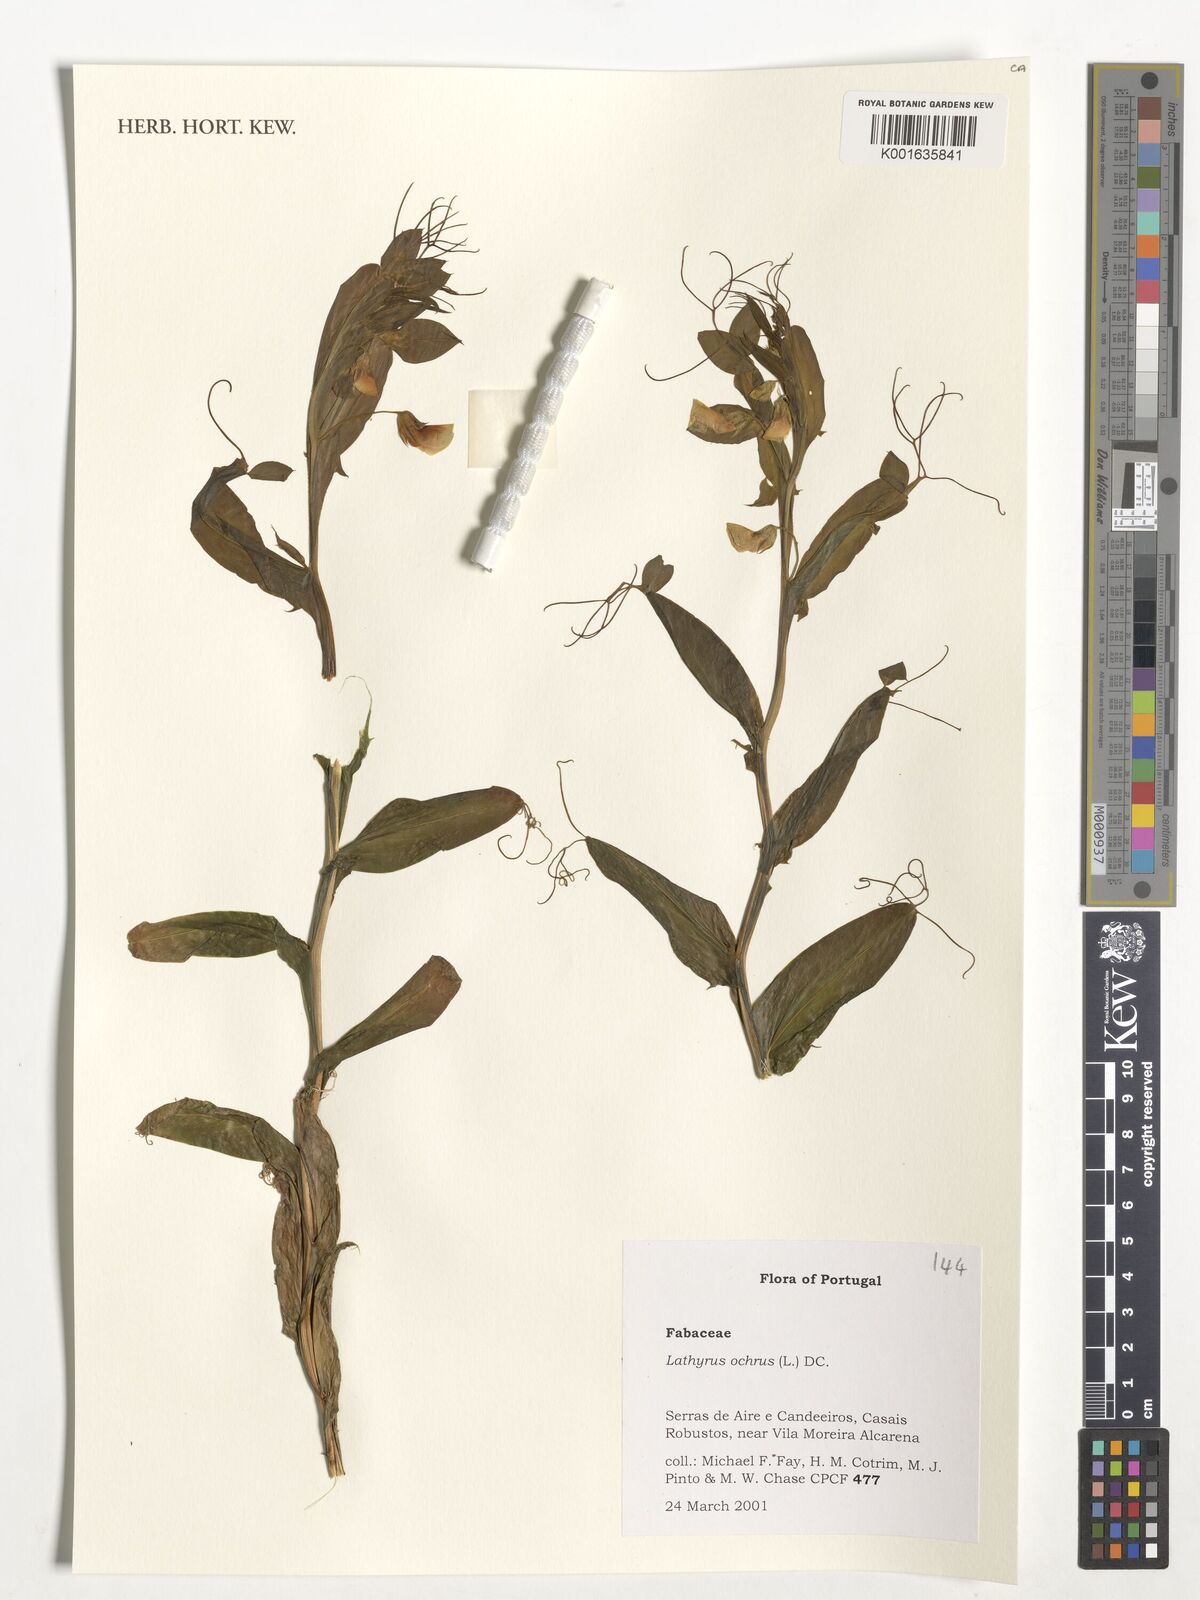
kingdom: Plantae
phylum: Tracheophyta
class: Magnoliopsida
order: Fabales
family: Fabaceae
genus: Lathyrus
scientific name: Lathyrus ochrus
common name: Winged vetchling
